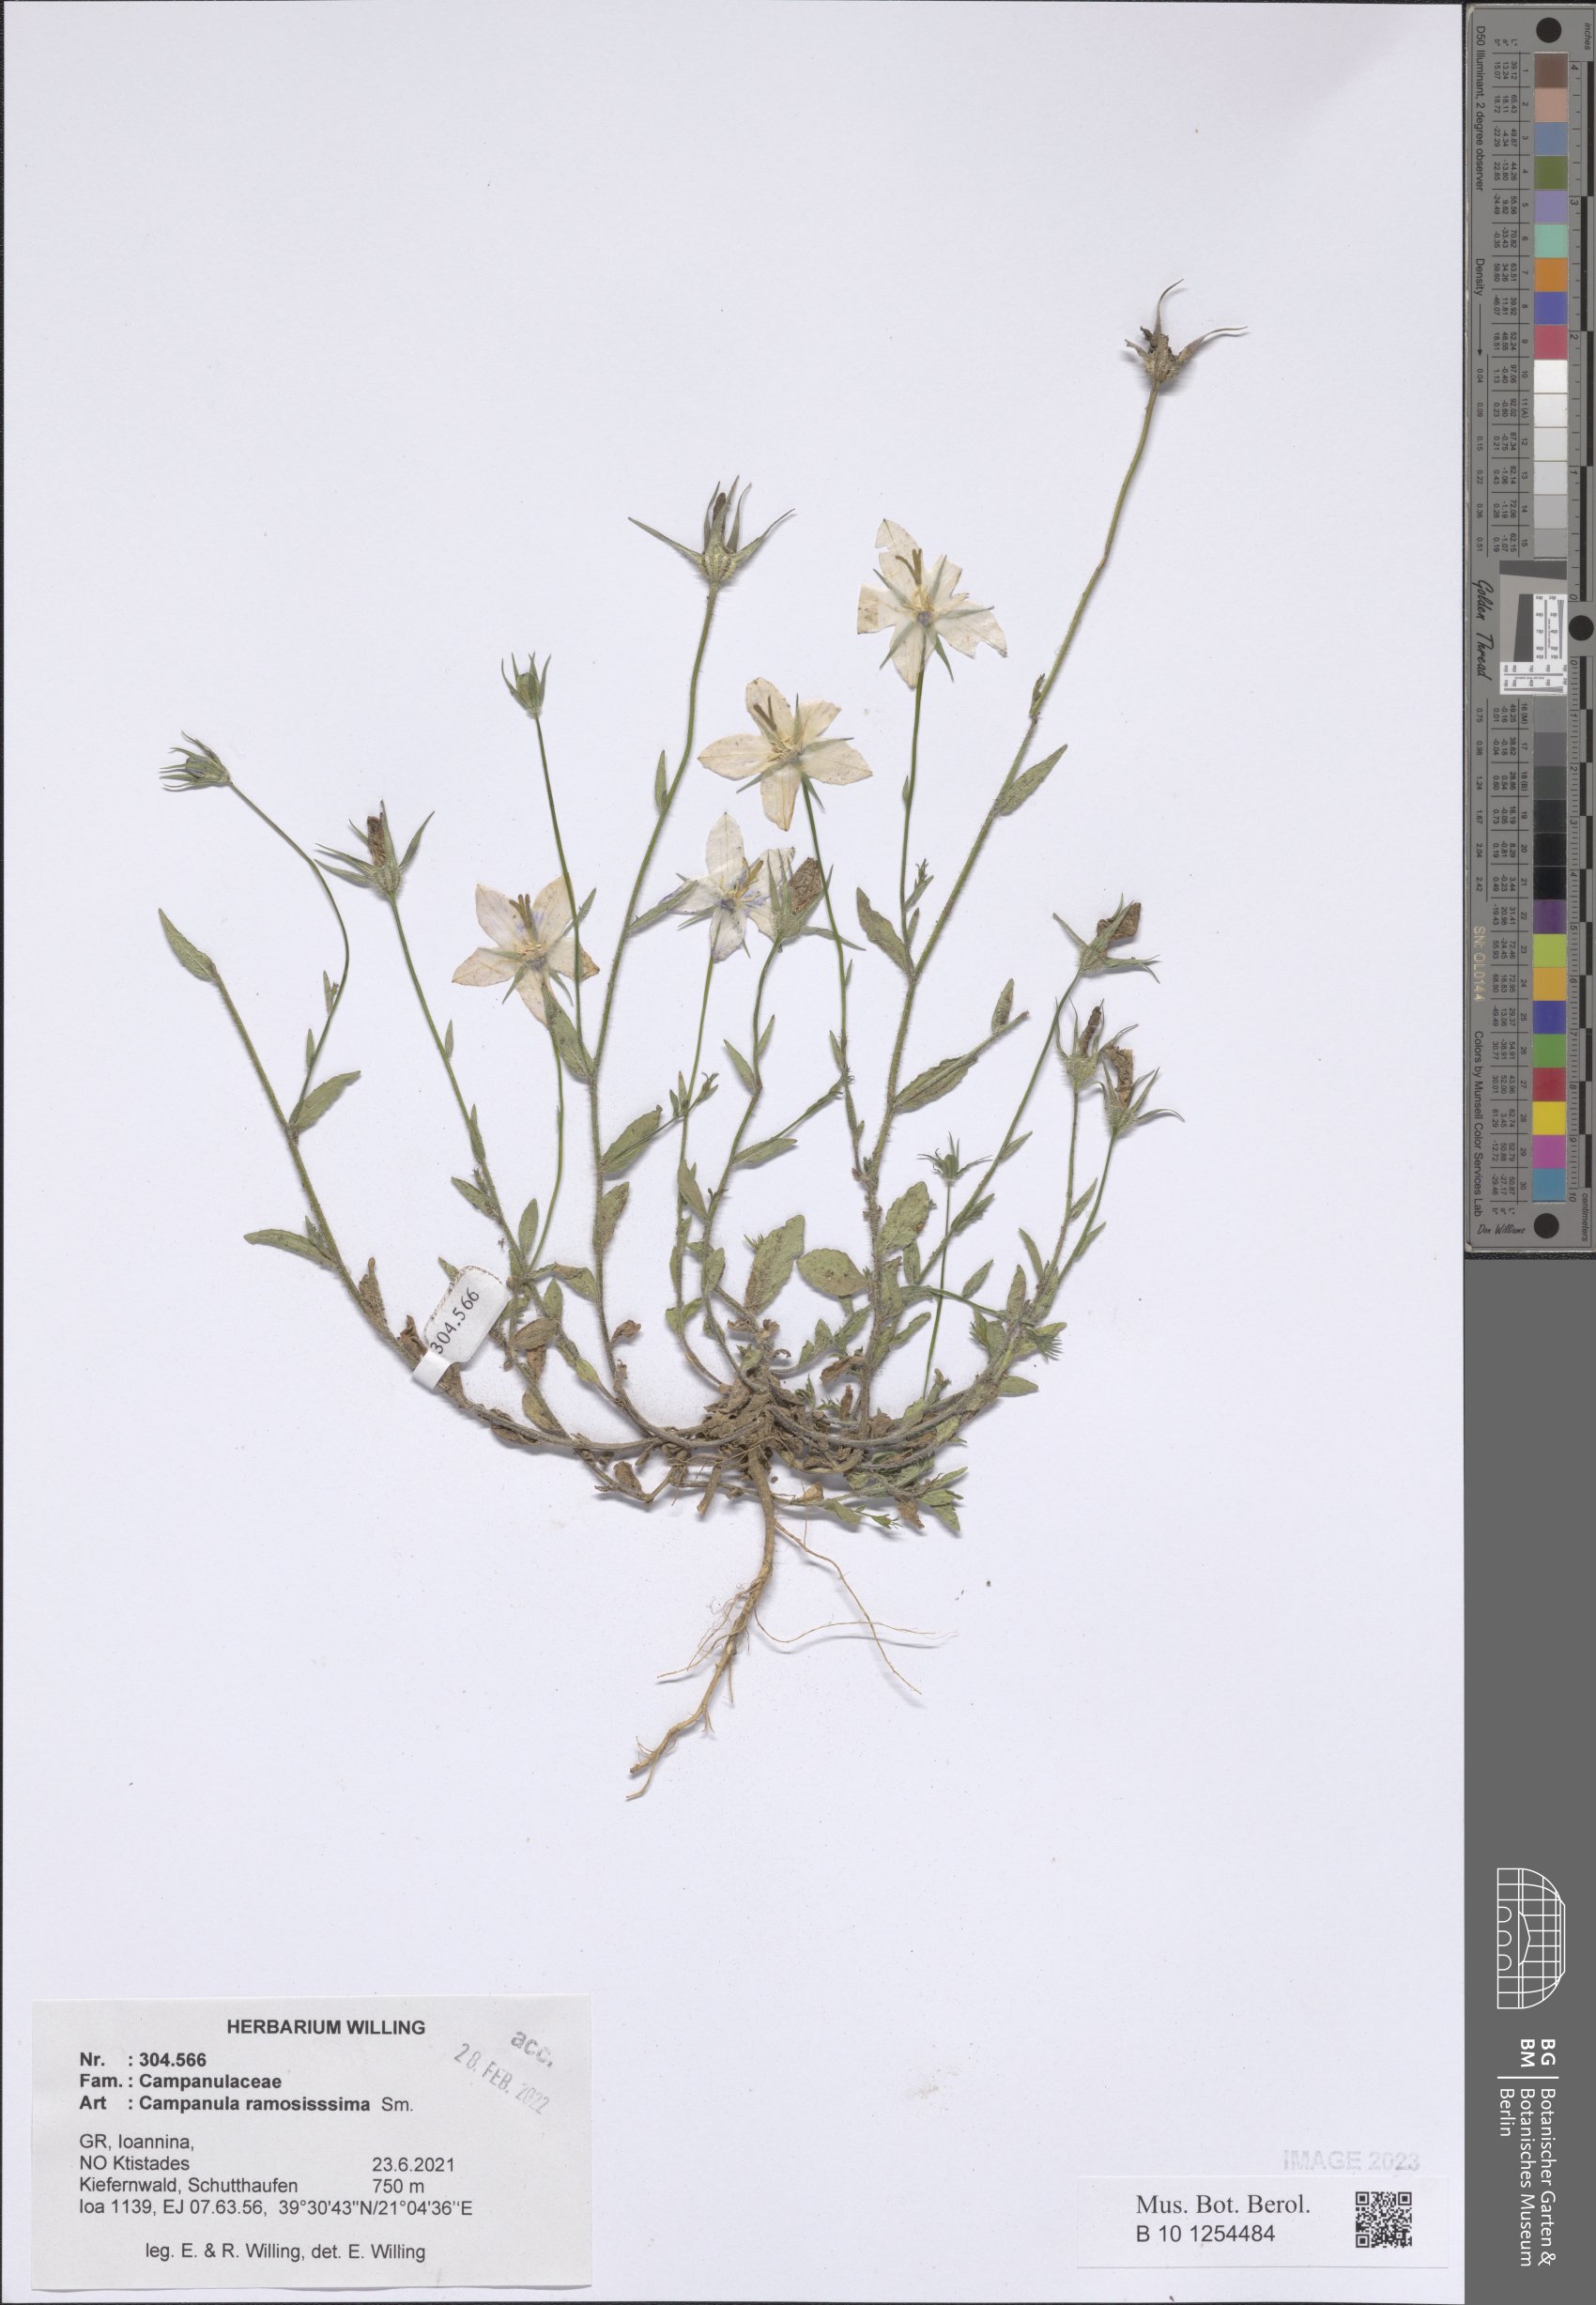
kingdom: Plantae
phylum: Tracheophyta
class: Magnoliopsida
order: Asterales
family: Campanulaceae
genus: Campanula
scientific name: Campanula ramosissima
